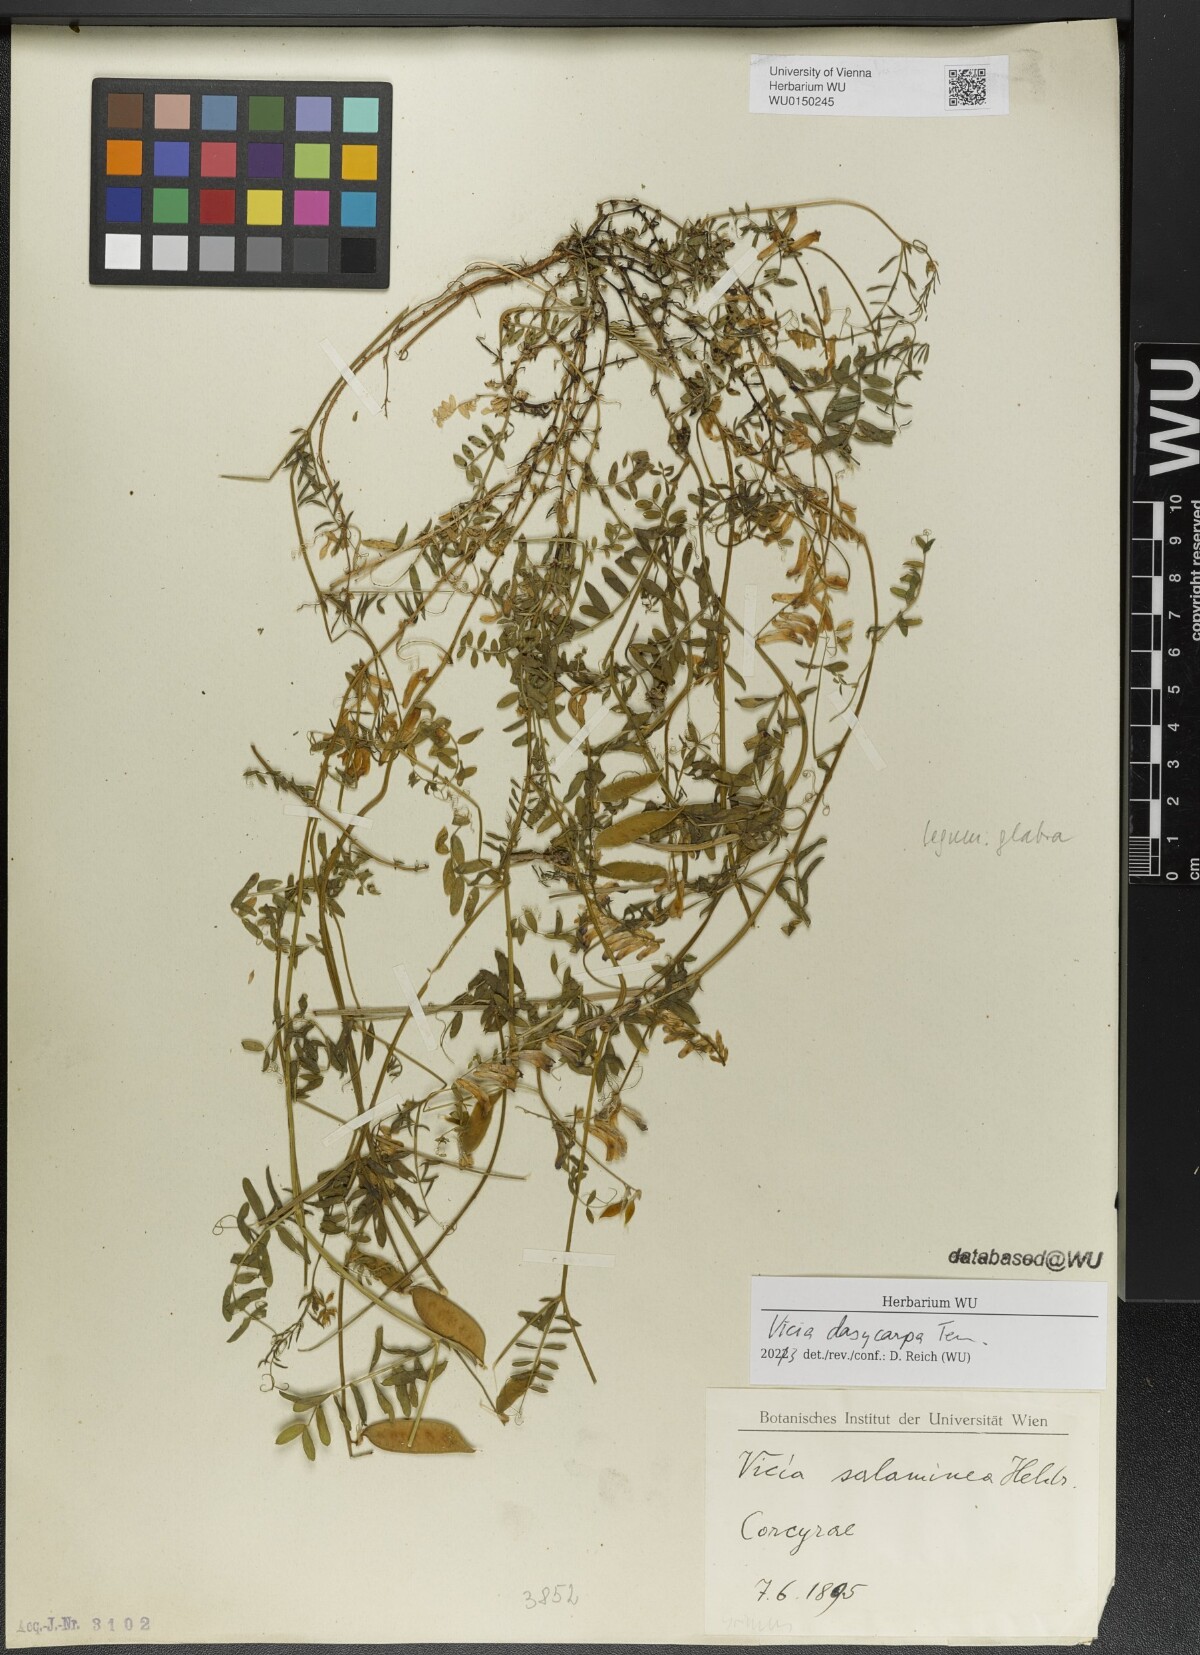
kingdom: Plantae
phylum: Tracheophyta
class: Magnoliopsida
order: Fabales
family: Fabaceae
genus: Vicia
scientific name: Vicia villosa
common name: Fodder vetch
